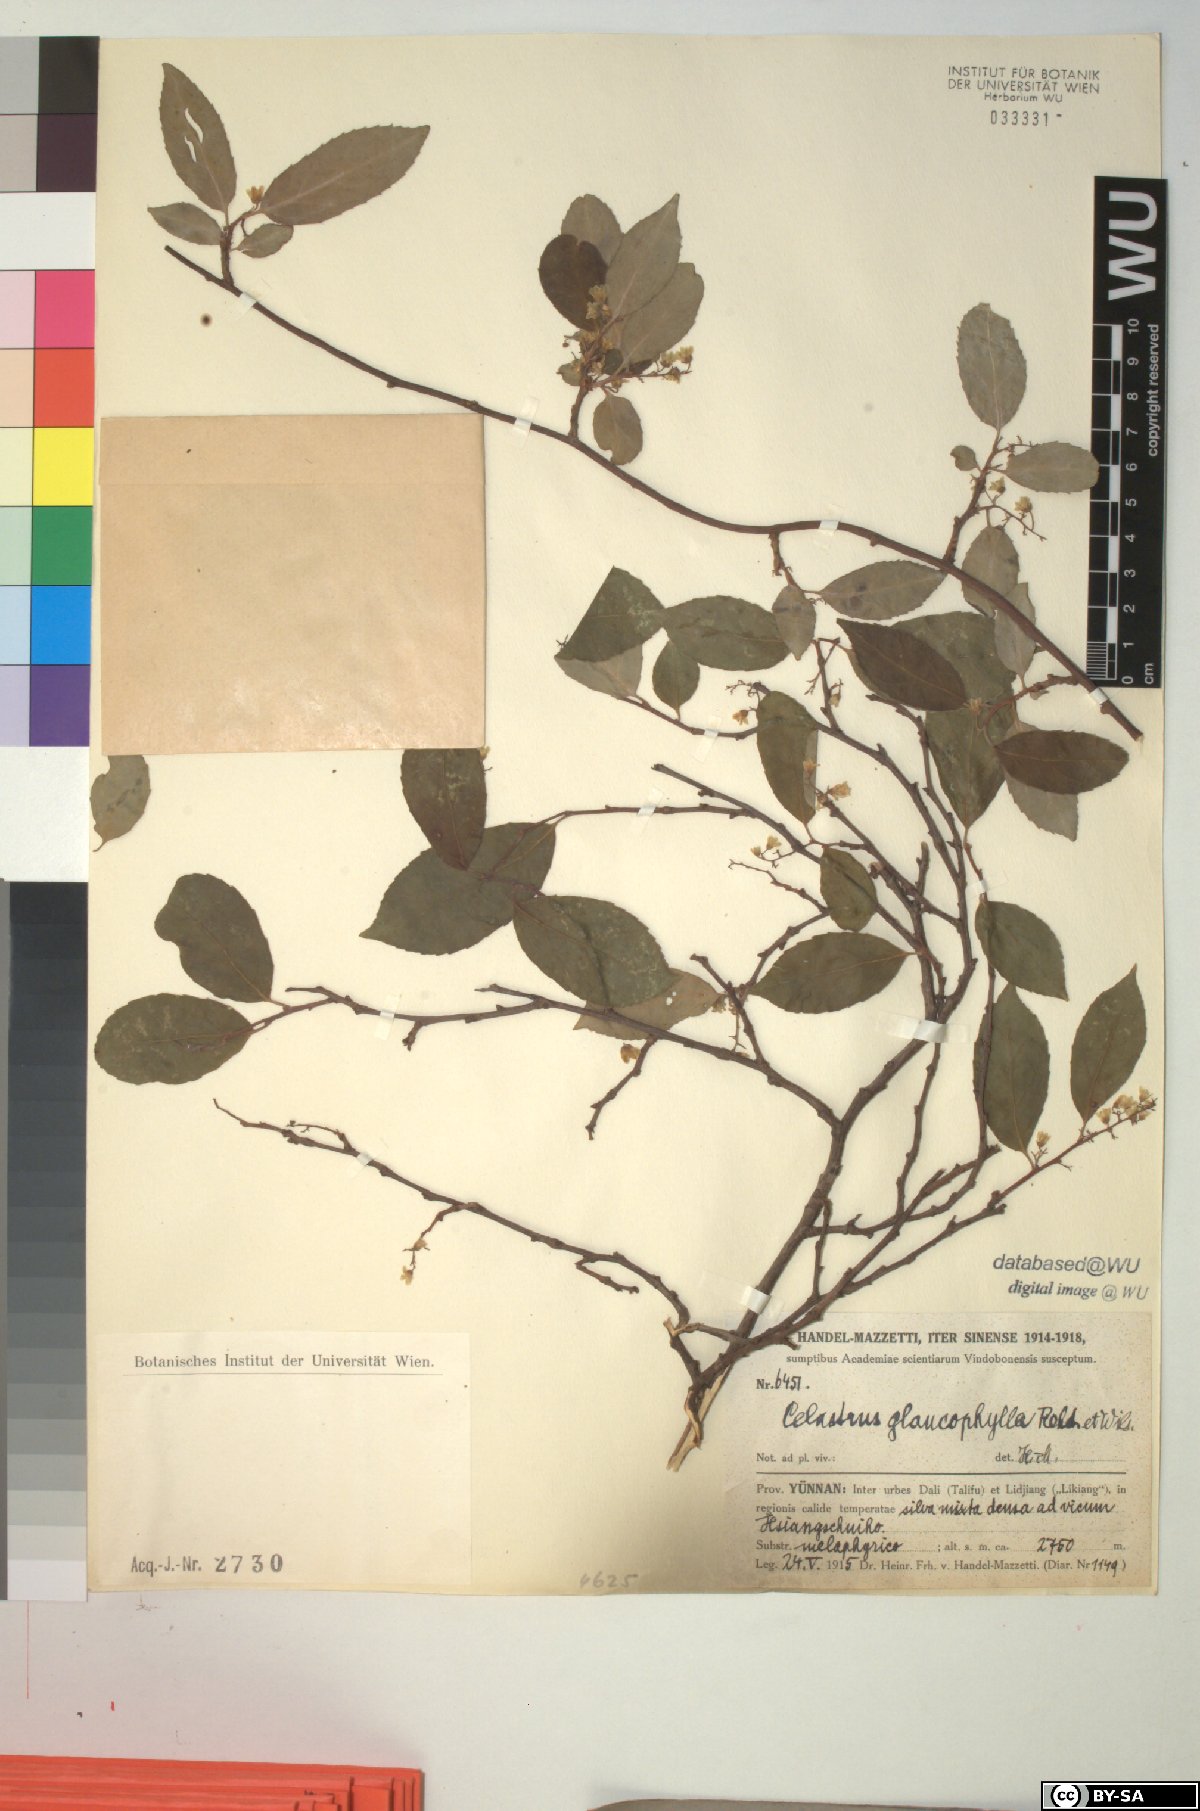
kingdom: Plantae
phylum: Tracheophyta
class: Magnoliopsida
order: Celastrales
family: Celastraceae
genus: Celastrus
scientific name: Celastrus glaucophyllus
